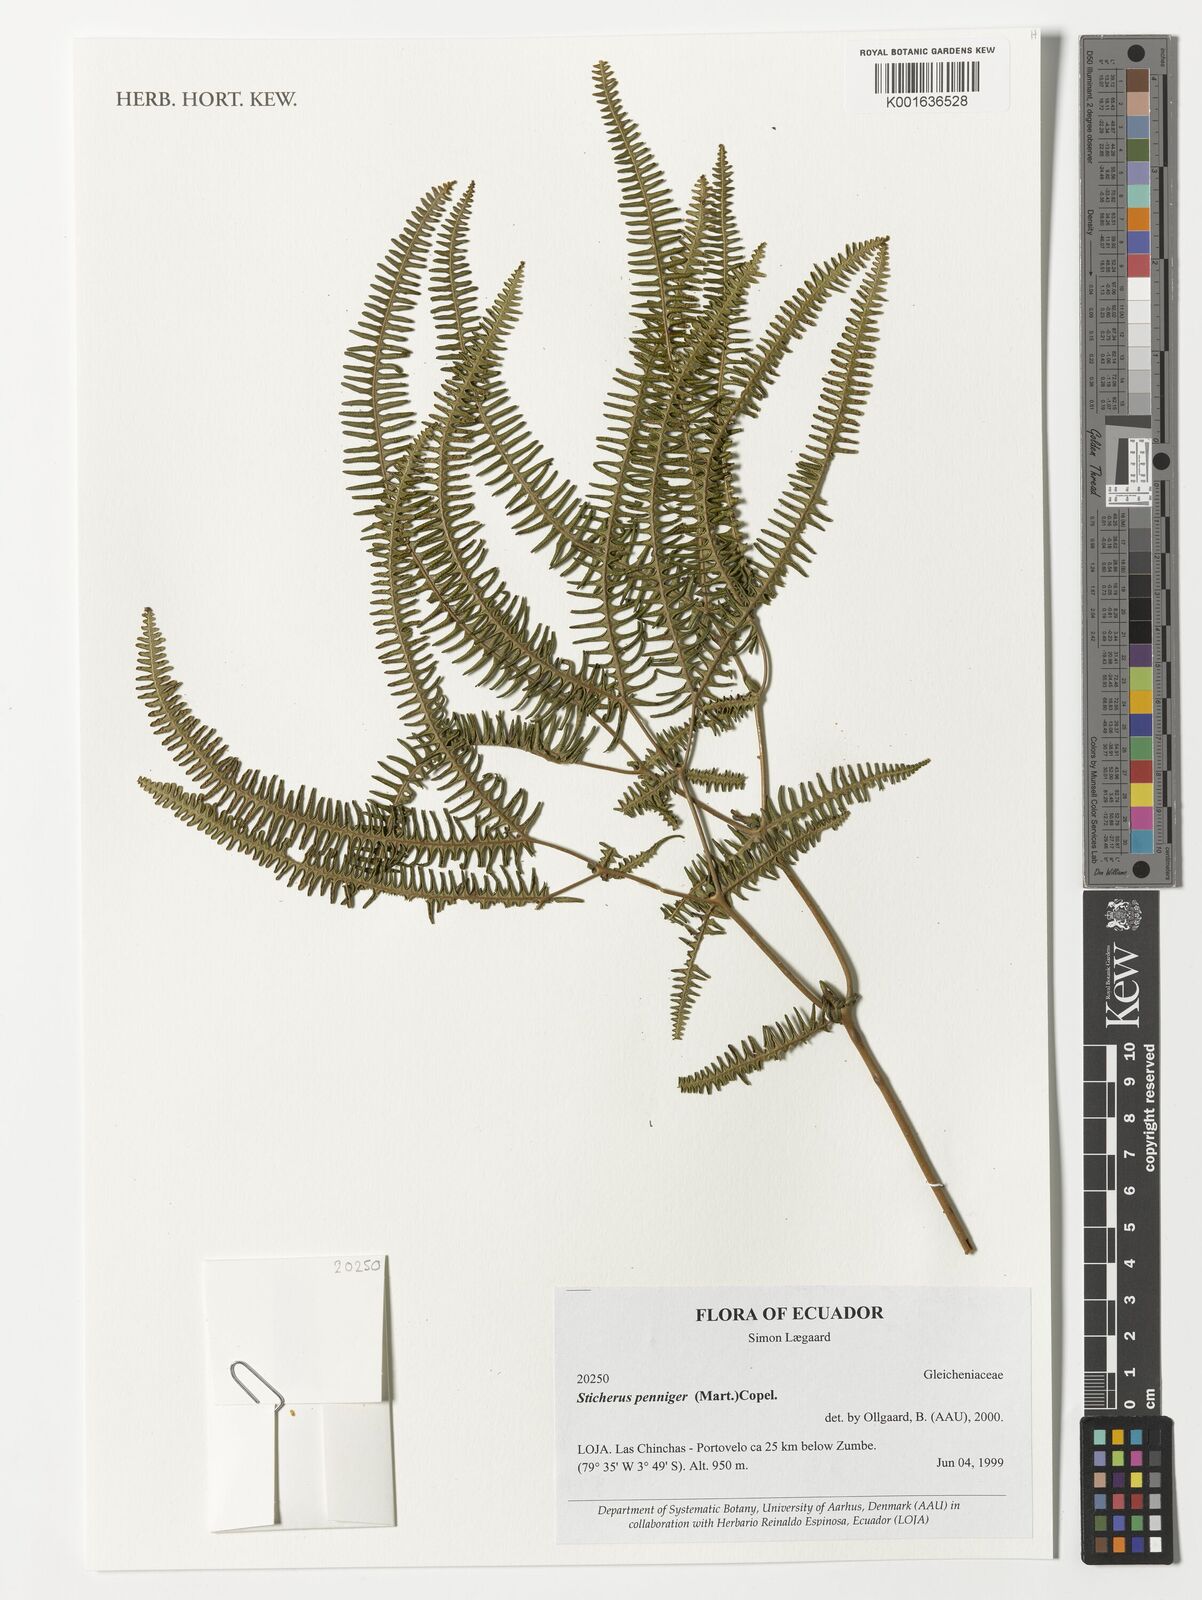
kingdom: Plantae
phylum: Tracheophyta
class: Polypodiopsida
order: Gleicheniales
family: Gleicheniaceae
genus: Sticherus
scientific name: Sticherus penniger
